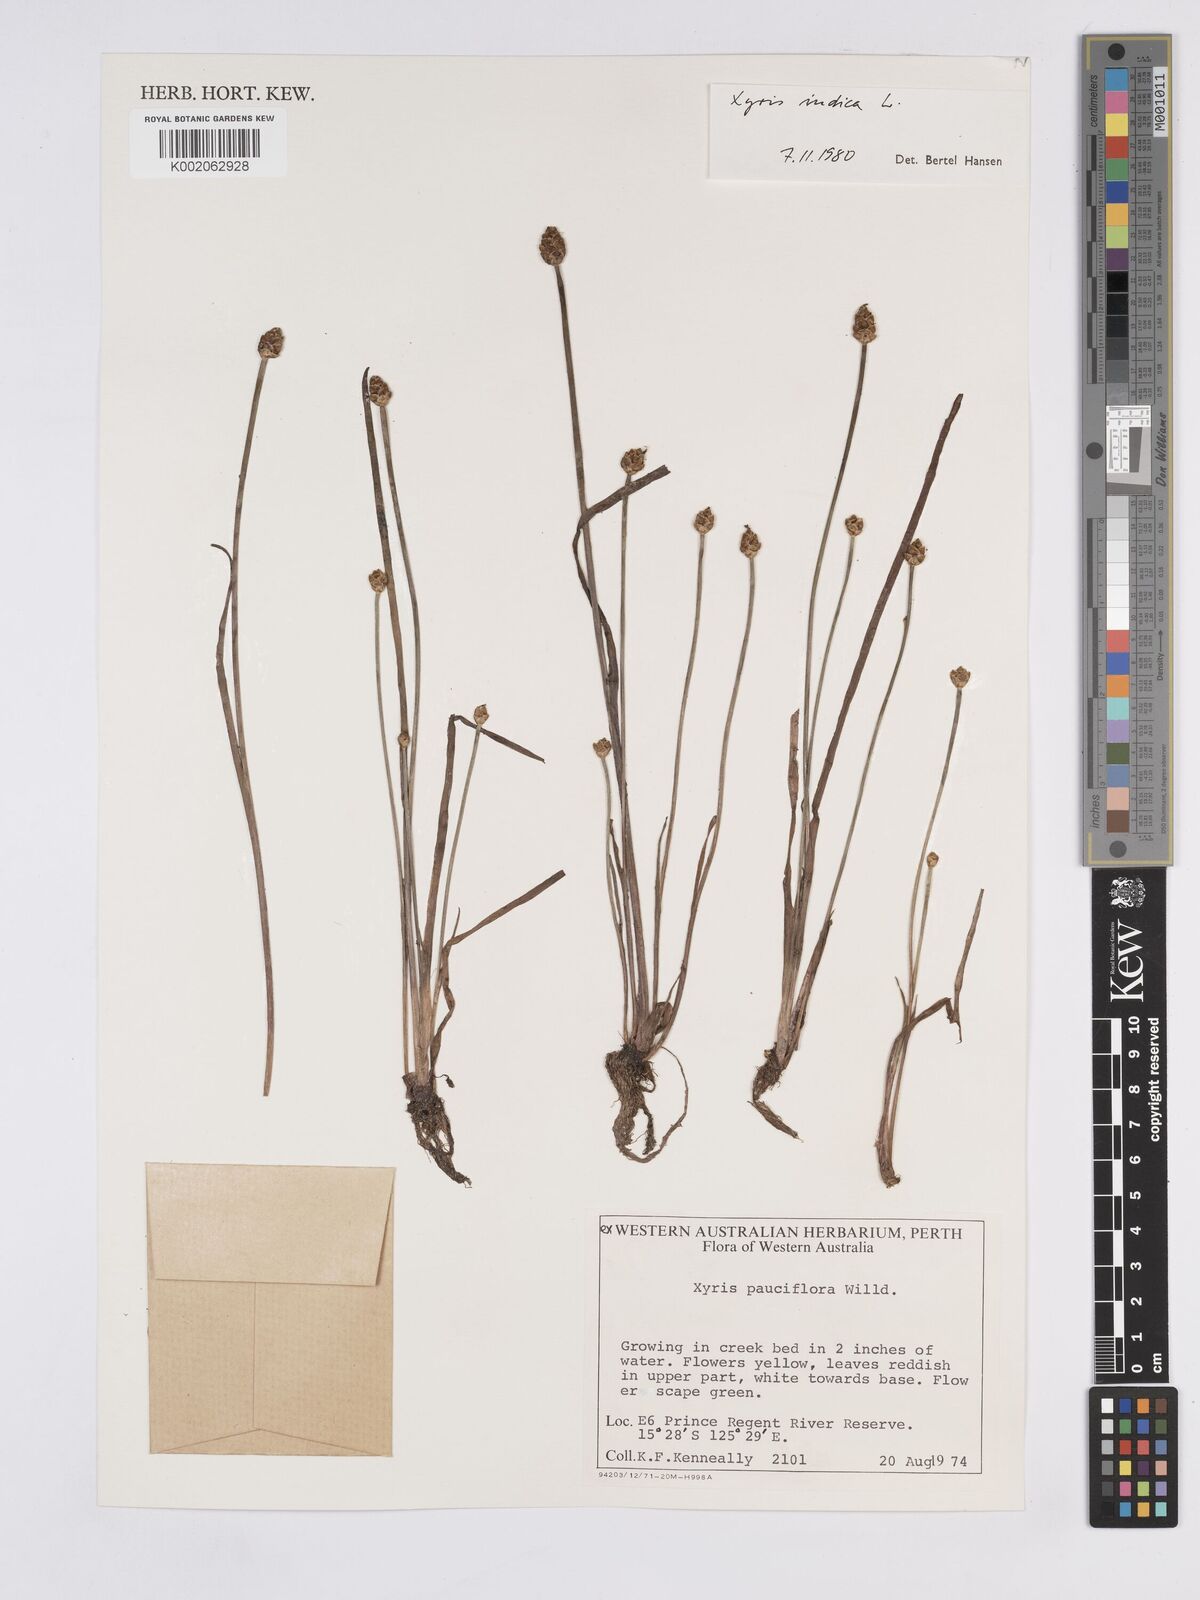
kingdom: Plantae
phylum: Tracheophyta
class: Liliopsida
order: Poales
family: Xyridaceae
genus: Xyris
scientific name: Xyris indica
